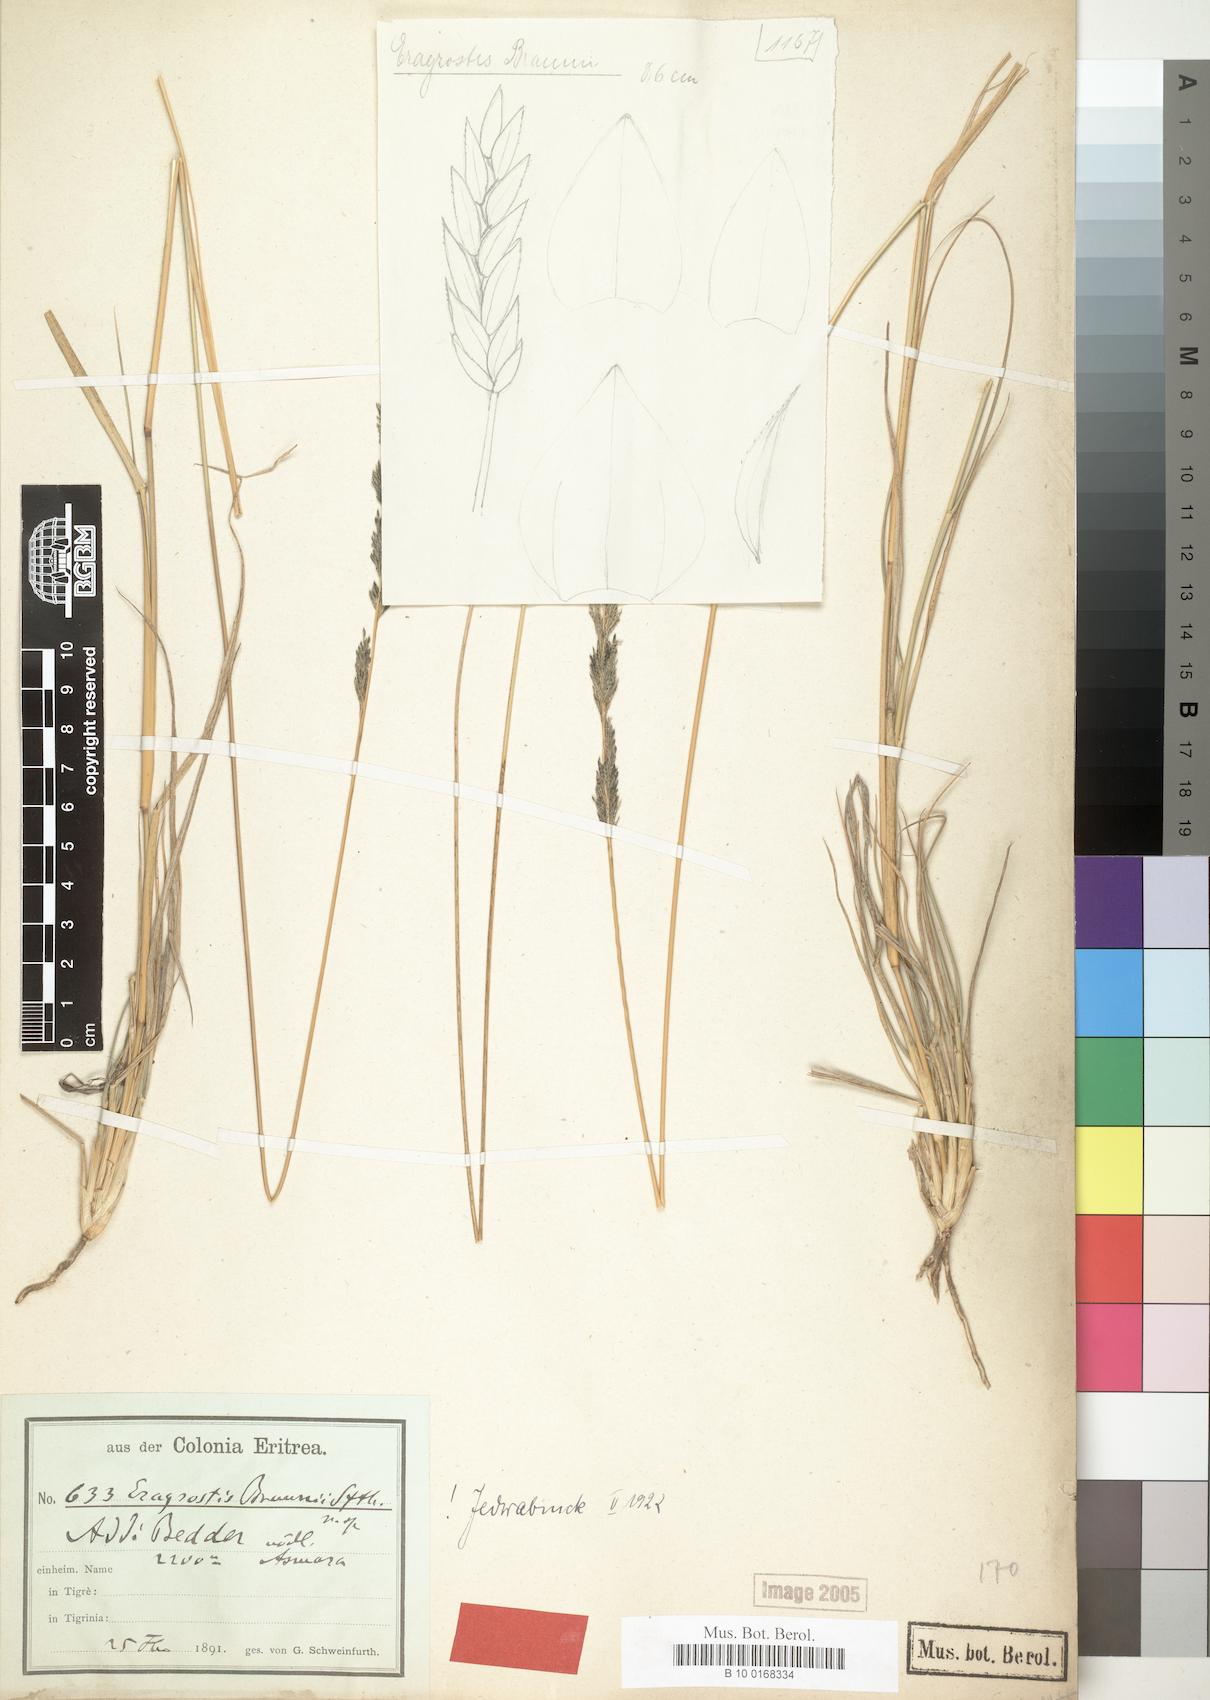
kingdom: Plantae
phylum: Tracheophyta
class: Liliopsida
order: Poales
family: Poaceae
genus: Eragrostis
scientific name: Eragrostis braunii
